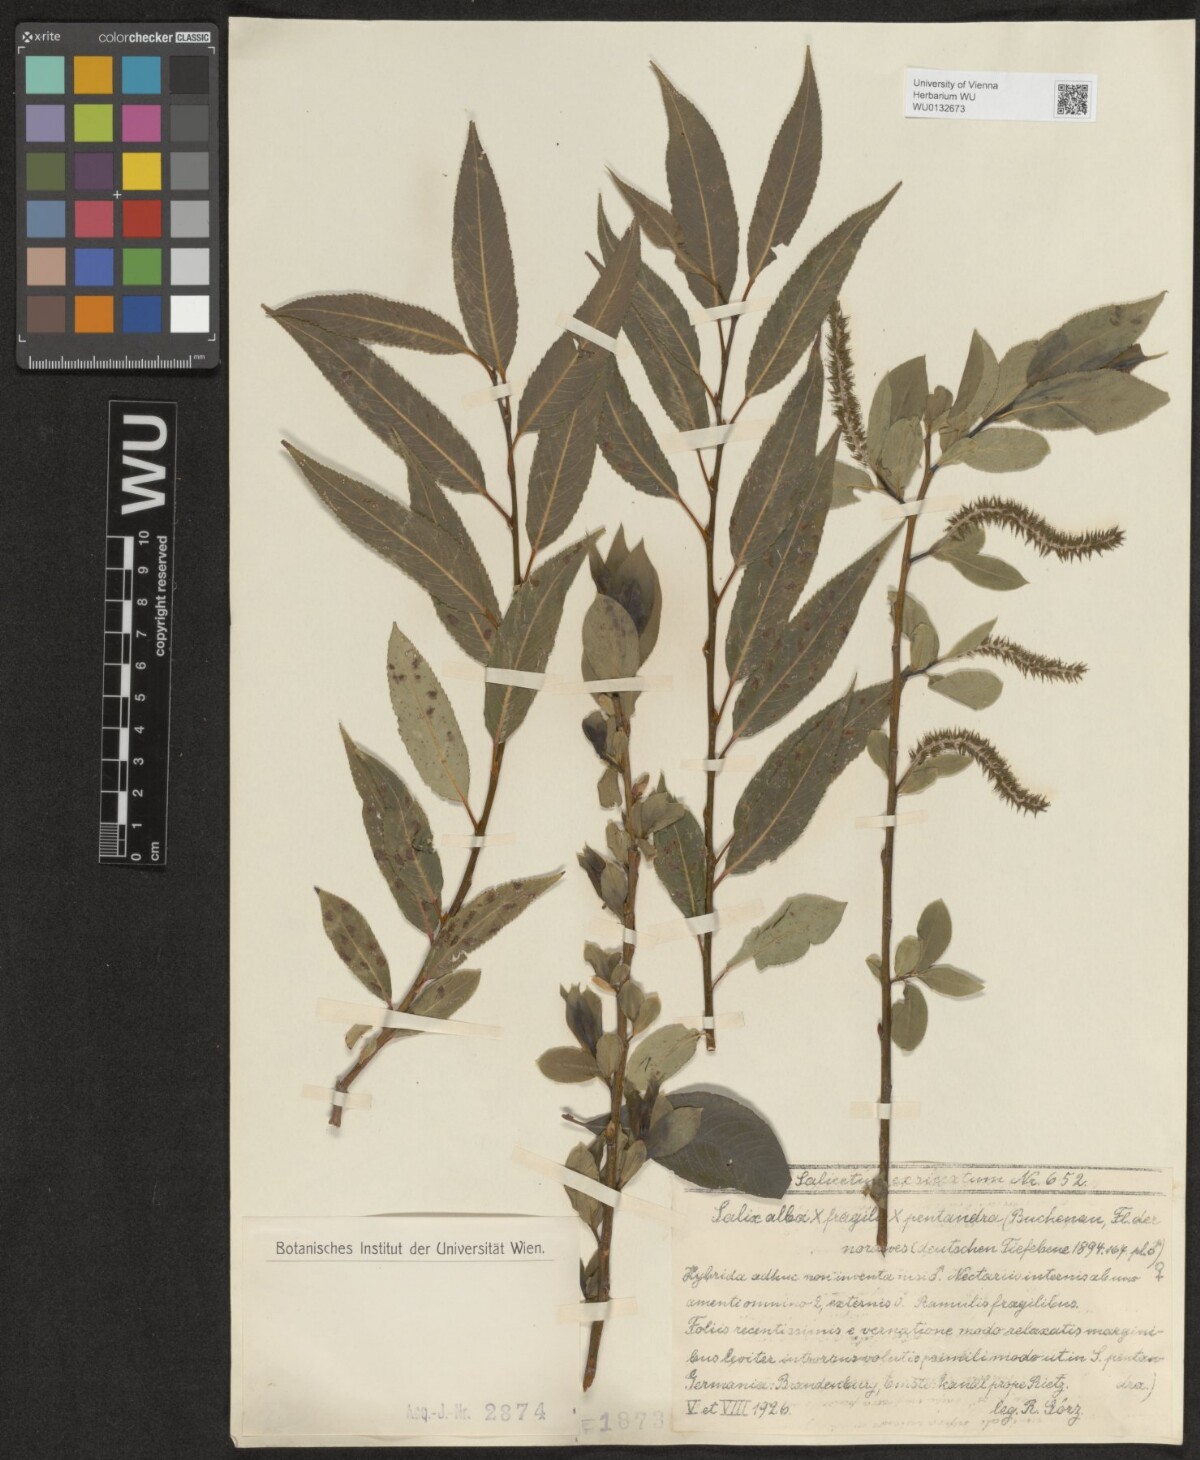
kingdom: Plantae
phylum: Tracheophyta
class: Magnoliopsida
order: Malpighiales
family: Salicaceae
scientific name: Salicaceae
